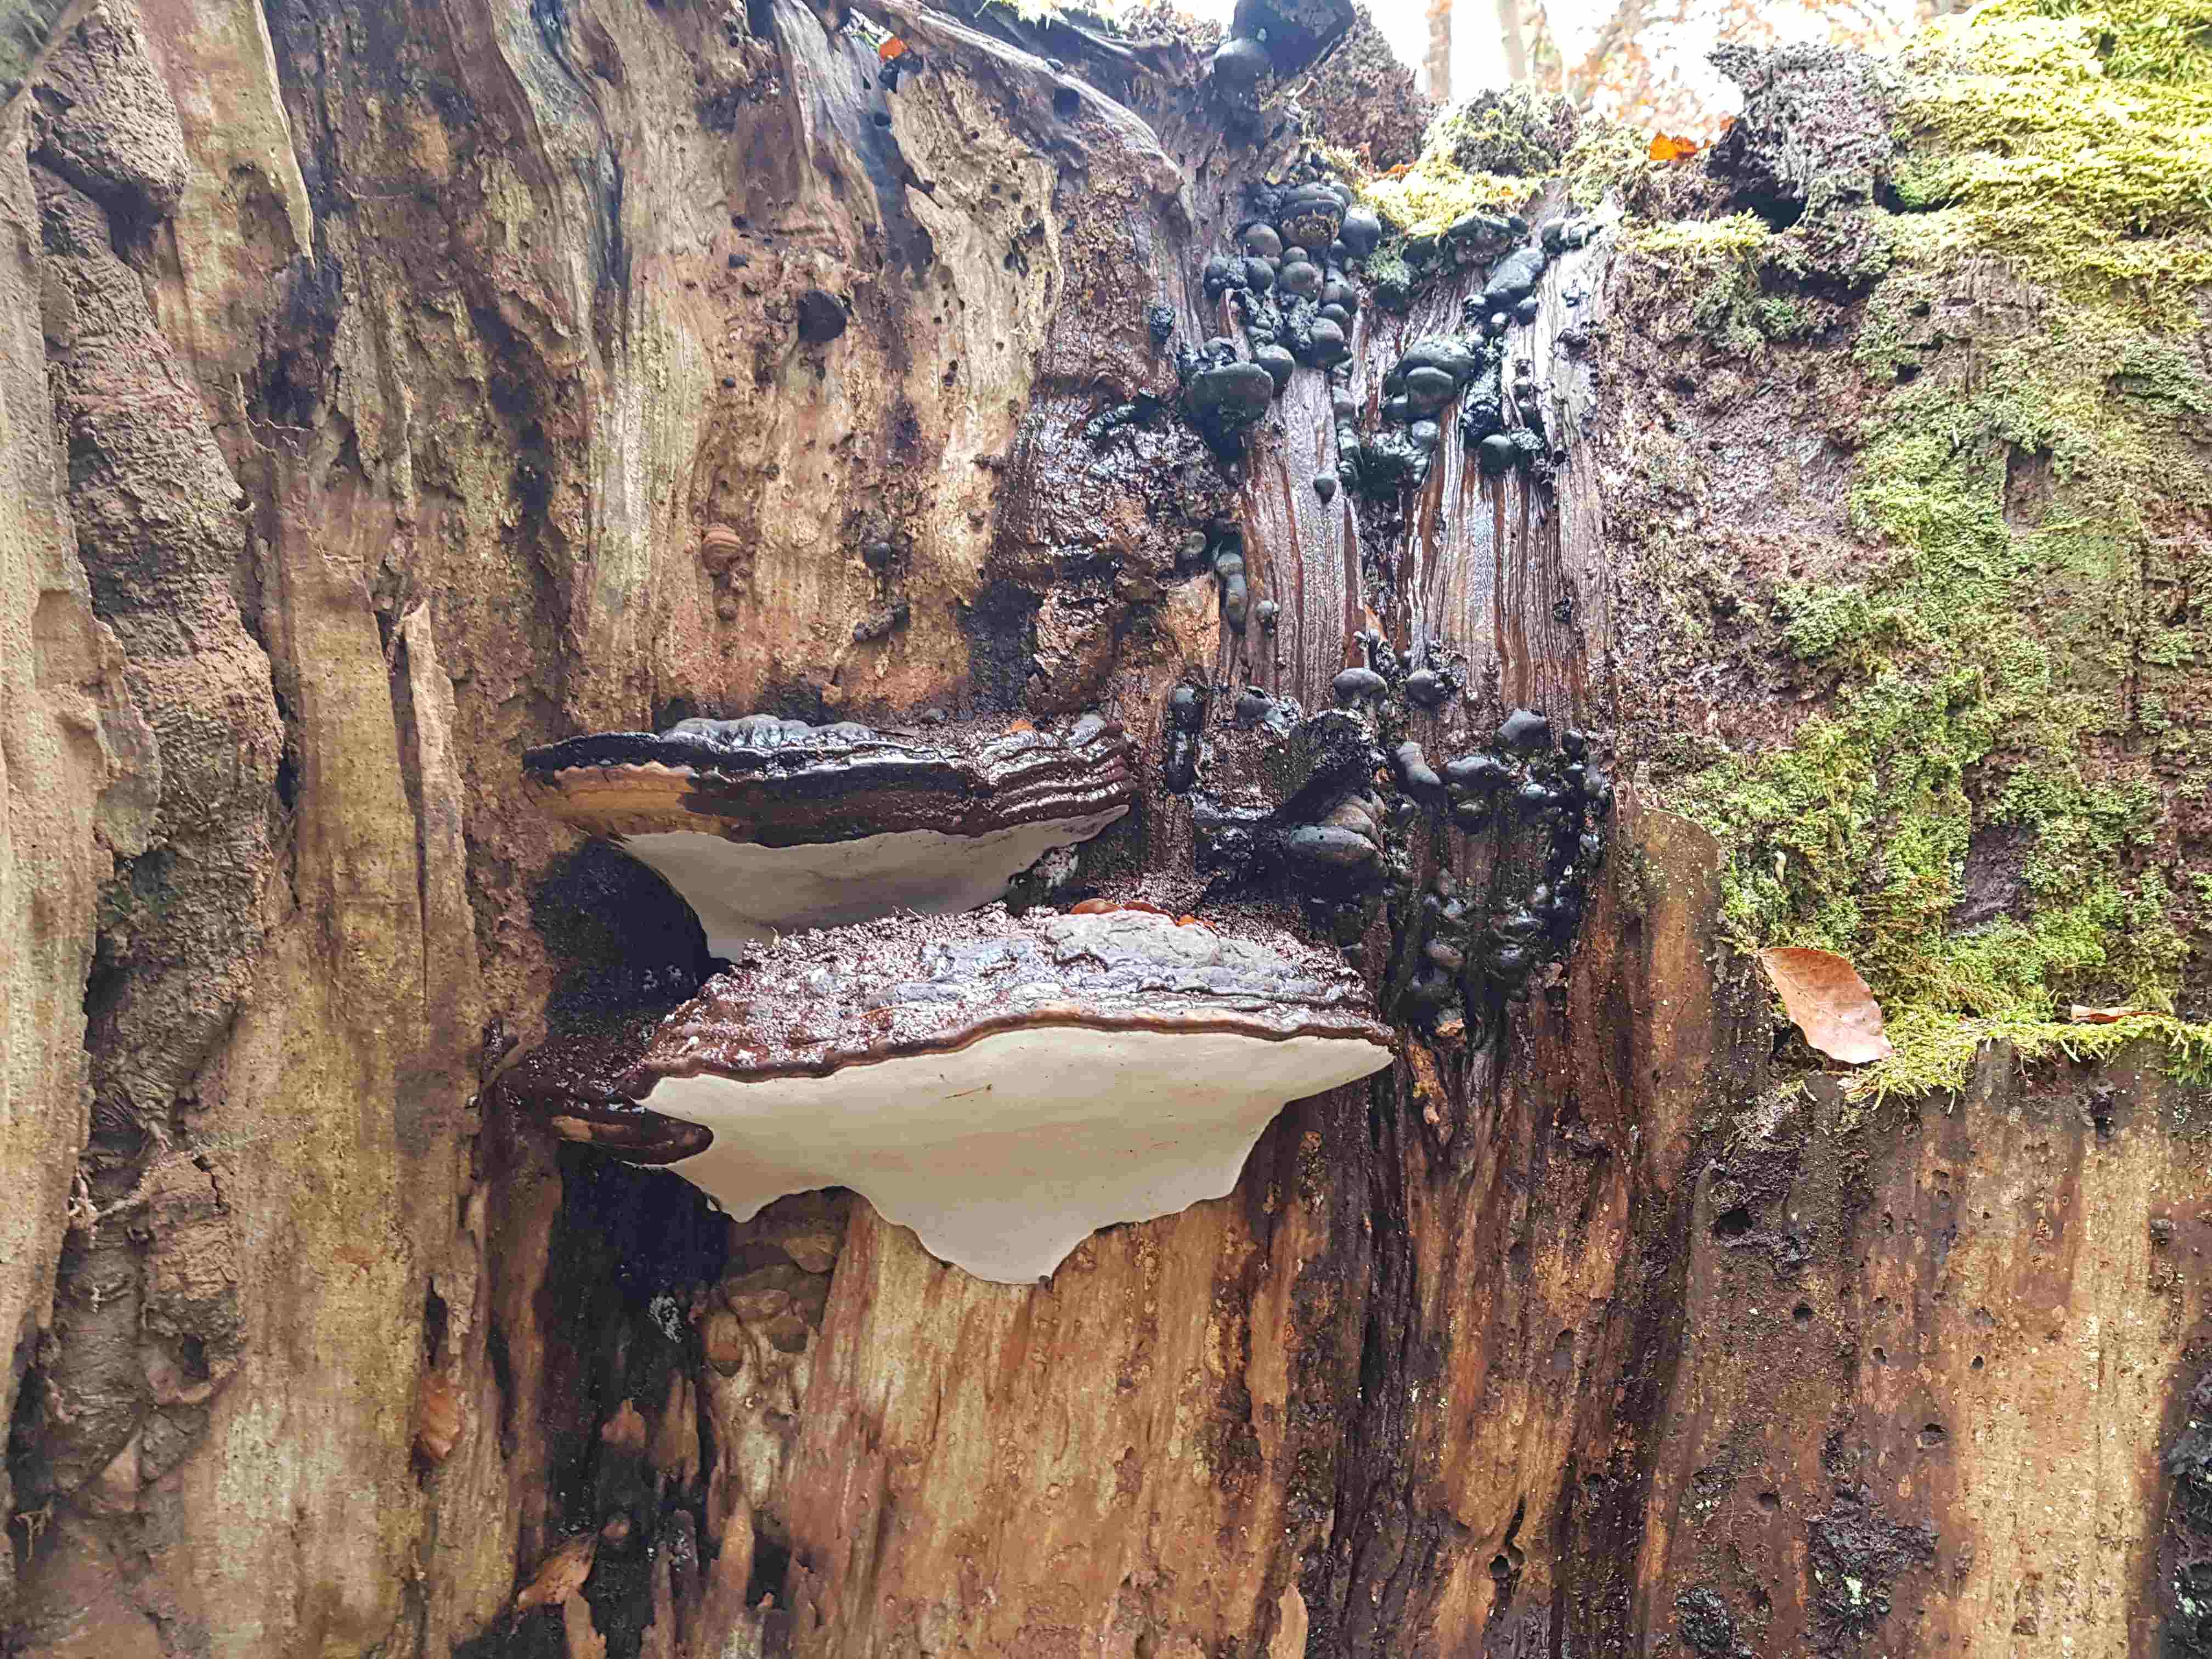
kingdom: Fungi
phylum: Basidiomycota
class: Agaricomycetes
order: Polyporales
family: Polyporaceae
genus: Ganoderma
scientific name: Ganoderma adspersum
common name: grov lakporesvamp
